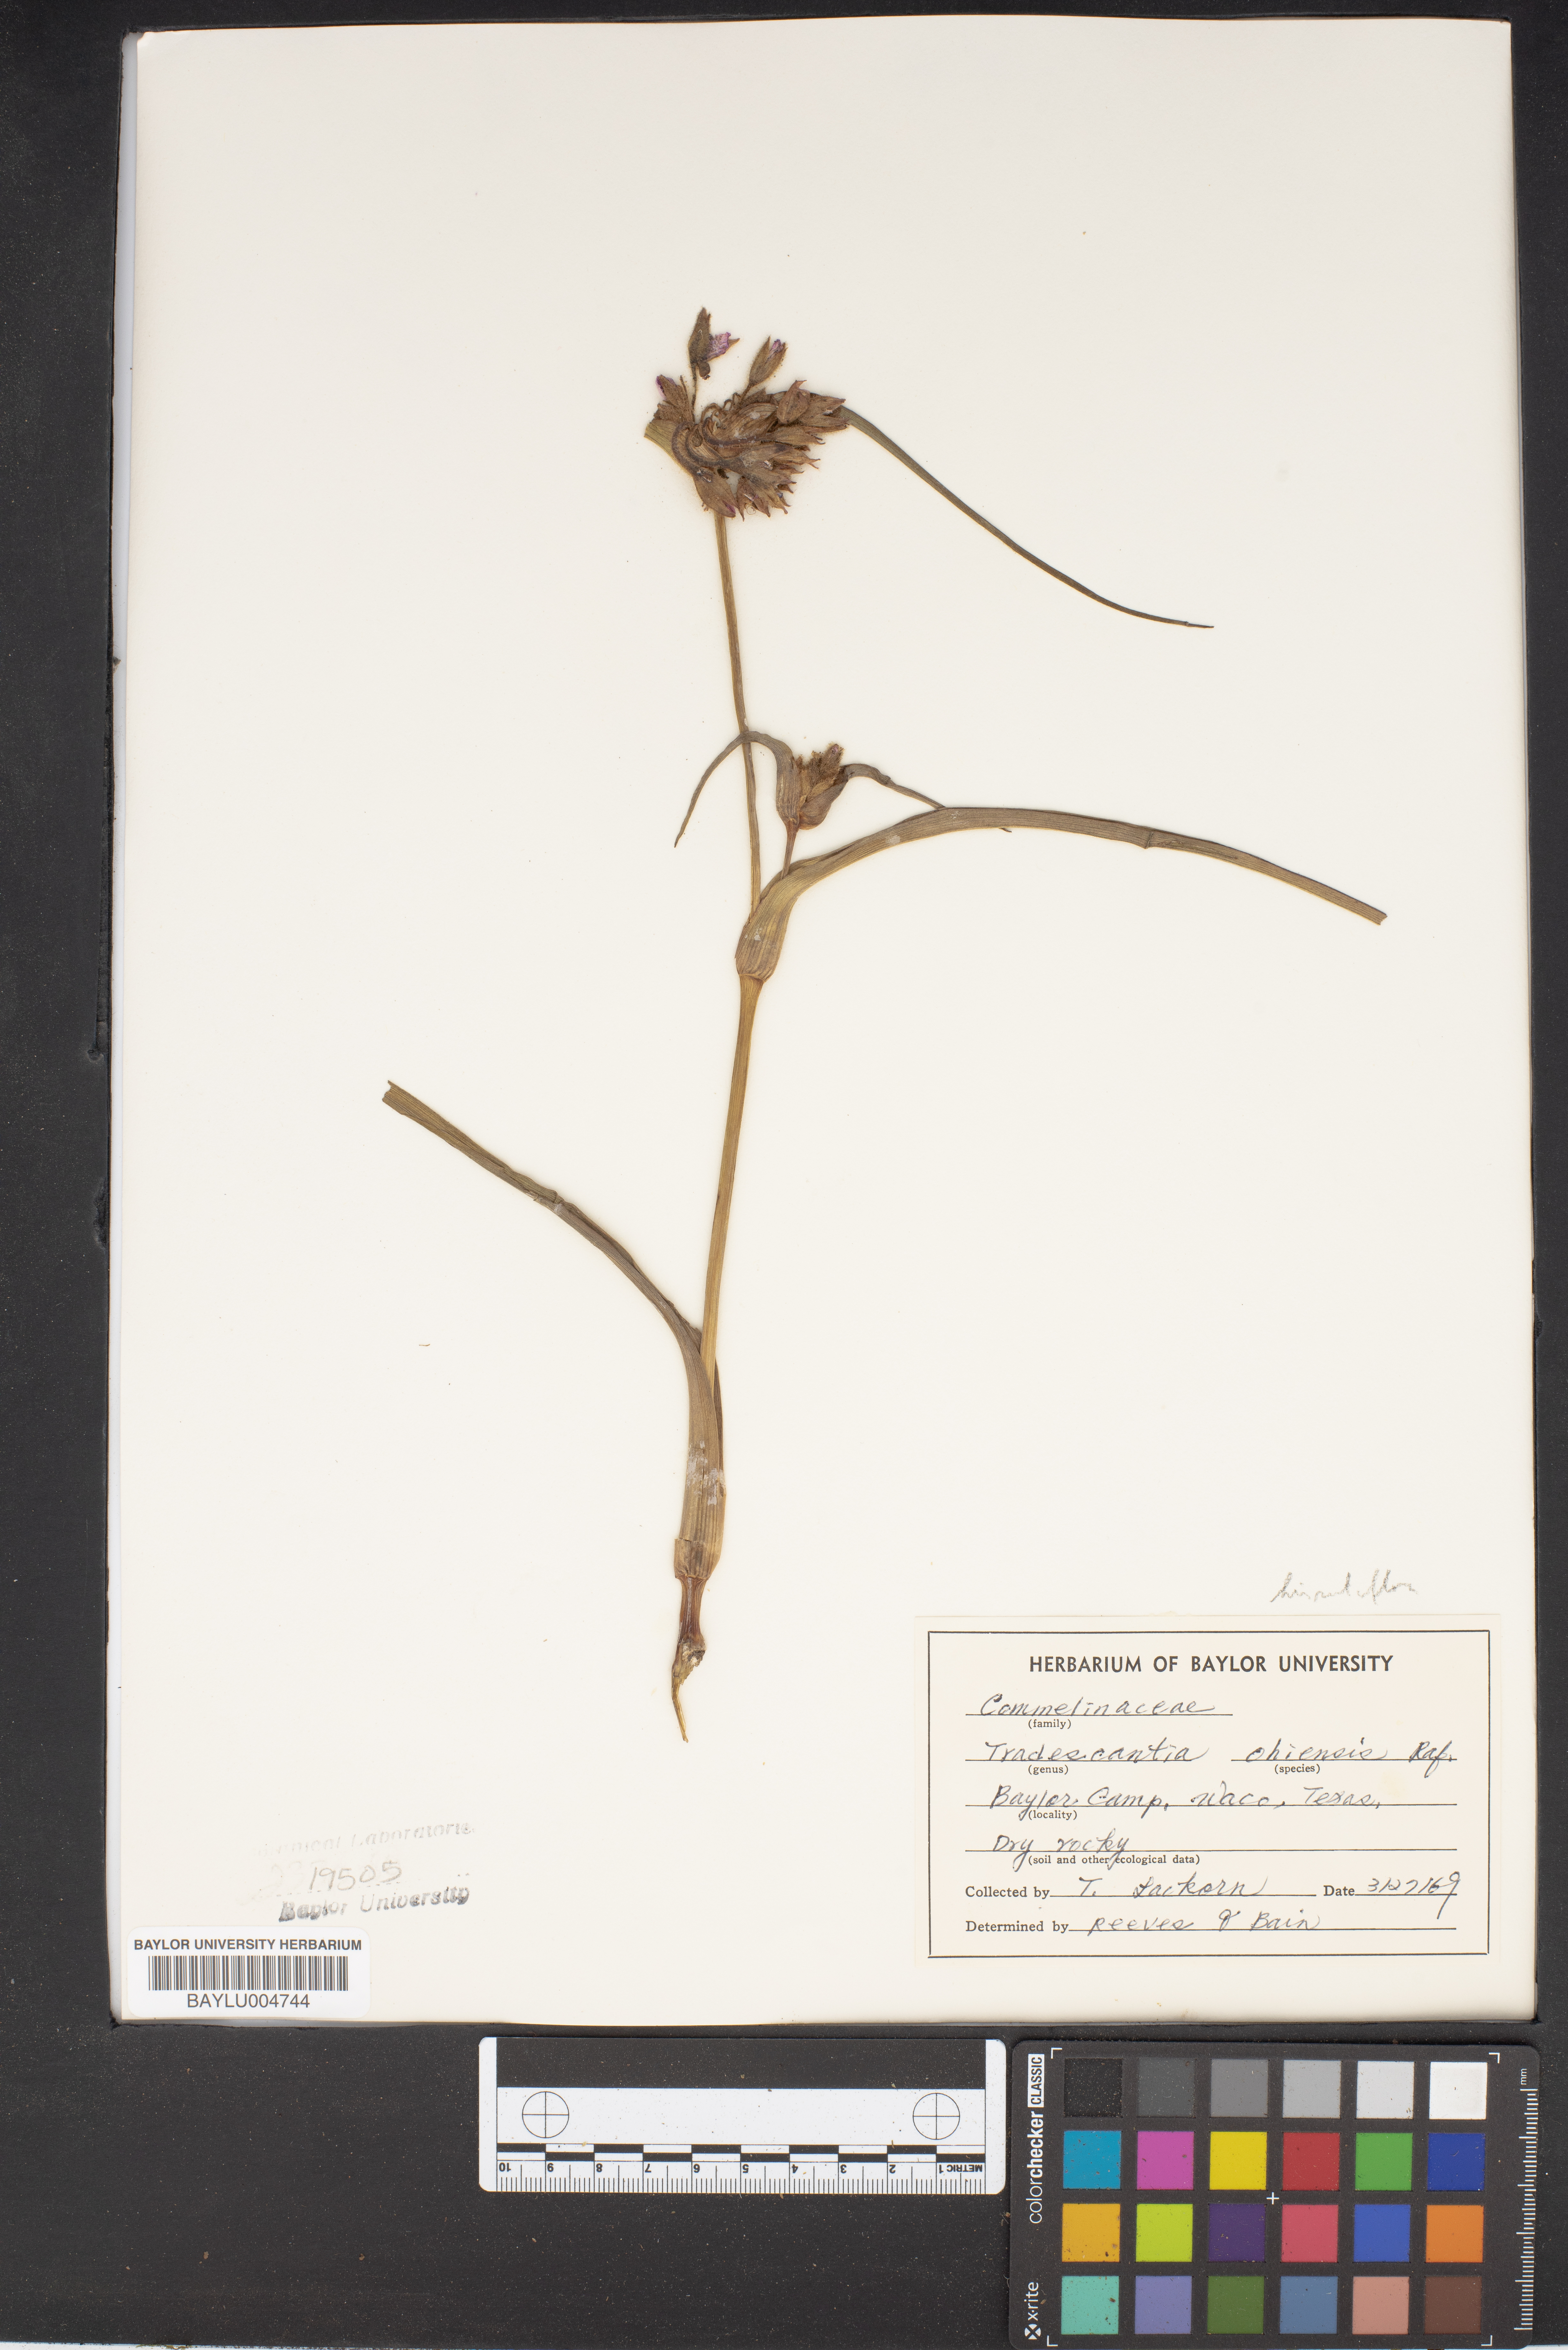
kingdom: Plantae
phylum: Tracheophyta
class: Liliopsida
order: Commelinales
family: Commelinaceae
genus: Tradescantia
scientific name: Tradescantia ohiensis
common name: Ohio spiderwort
